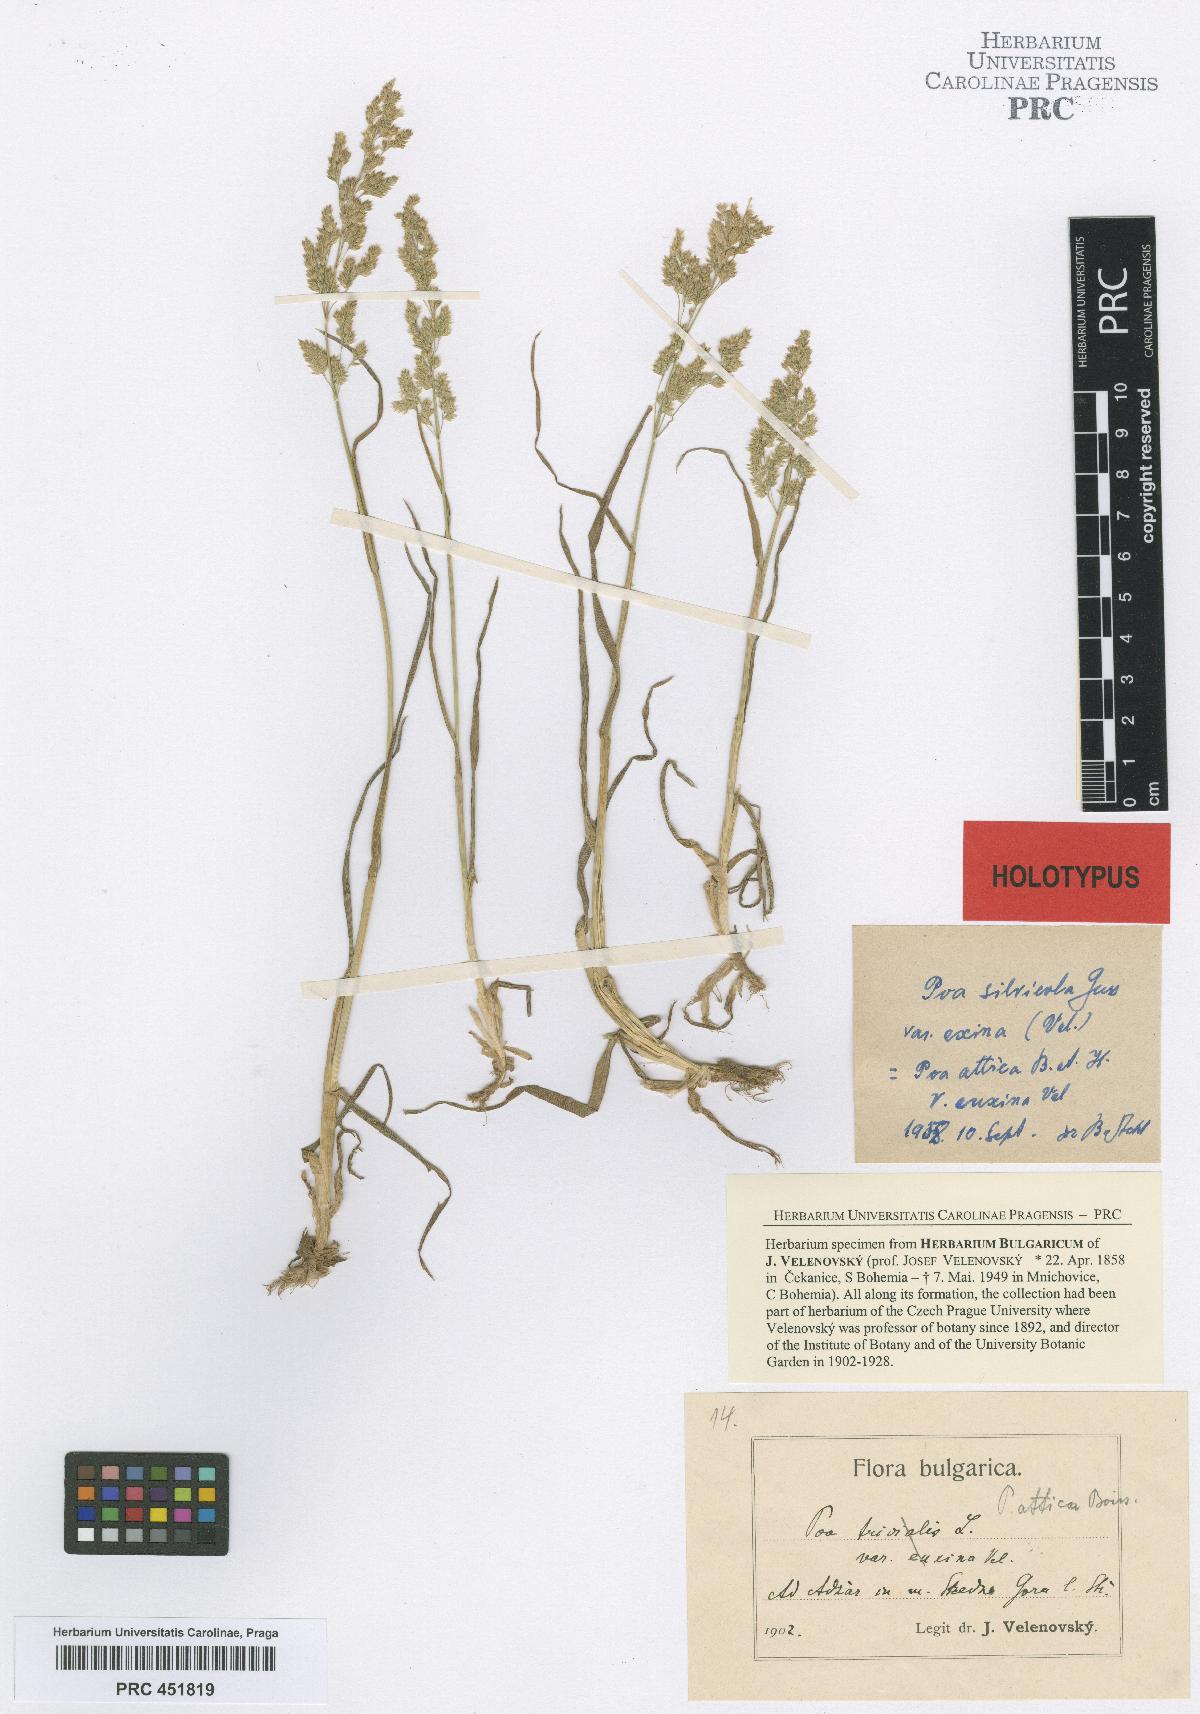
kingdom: Plantae
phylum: Tracheophyta
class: Liliopsida
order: Poales
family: Poaceae
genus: Poa
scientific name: Poa trivialis
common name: Rough bluegrass
